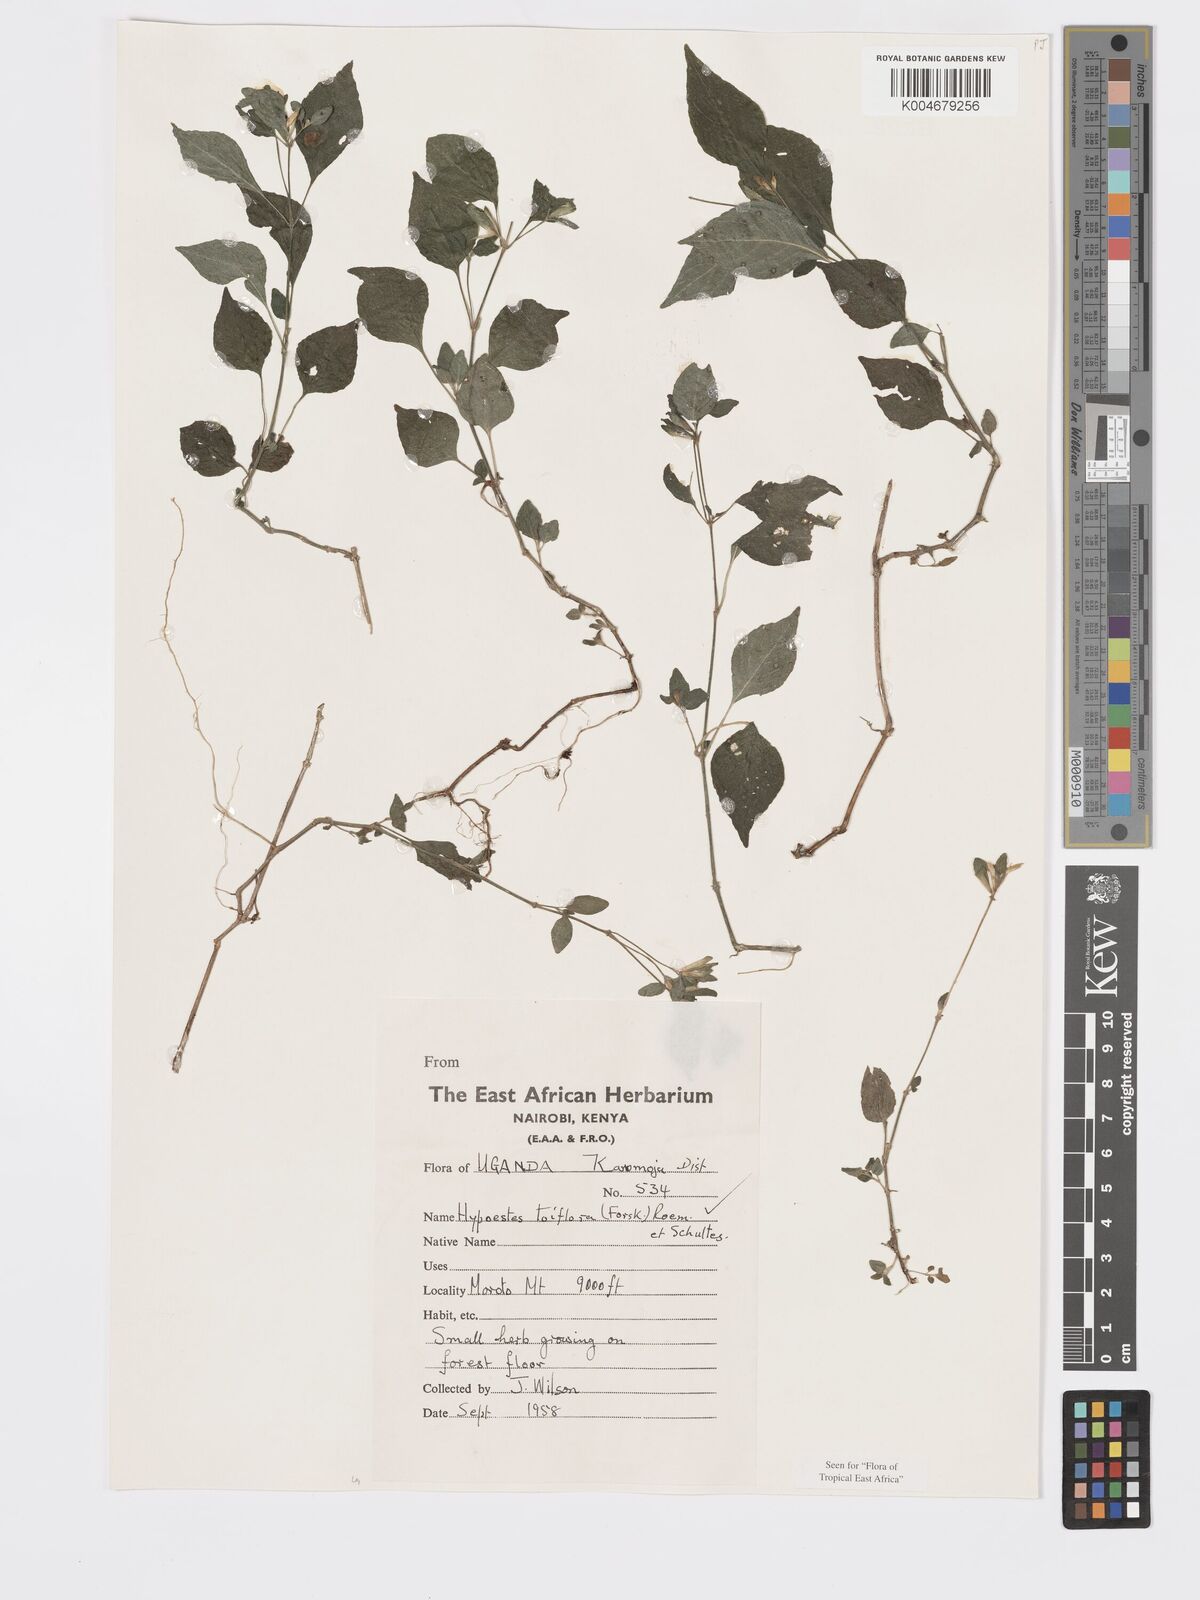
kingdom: Plantae
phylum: Tracheophyta
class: Magnoliopsida
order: Lamiales
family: Acanthaceae
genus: Hypoestes
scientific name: Hypoestes triflora
